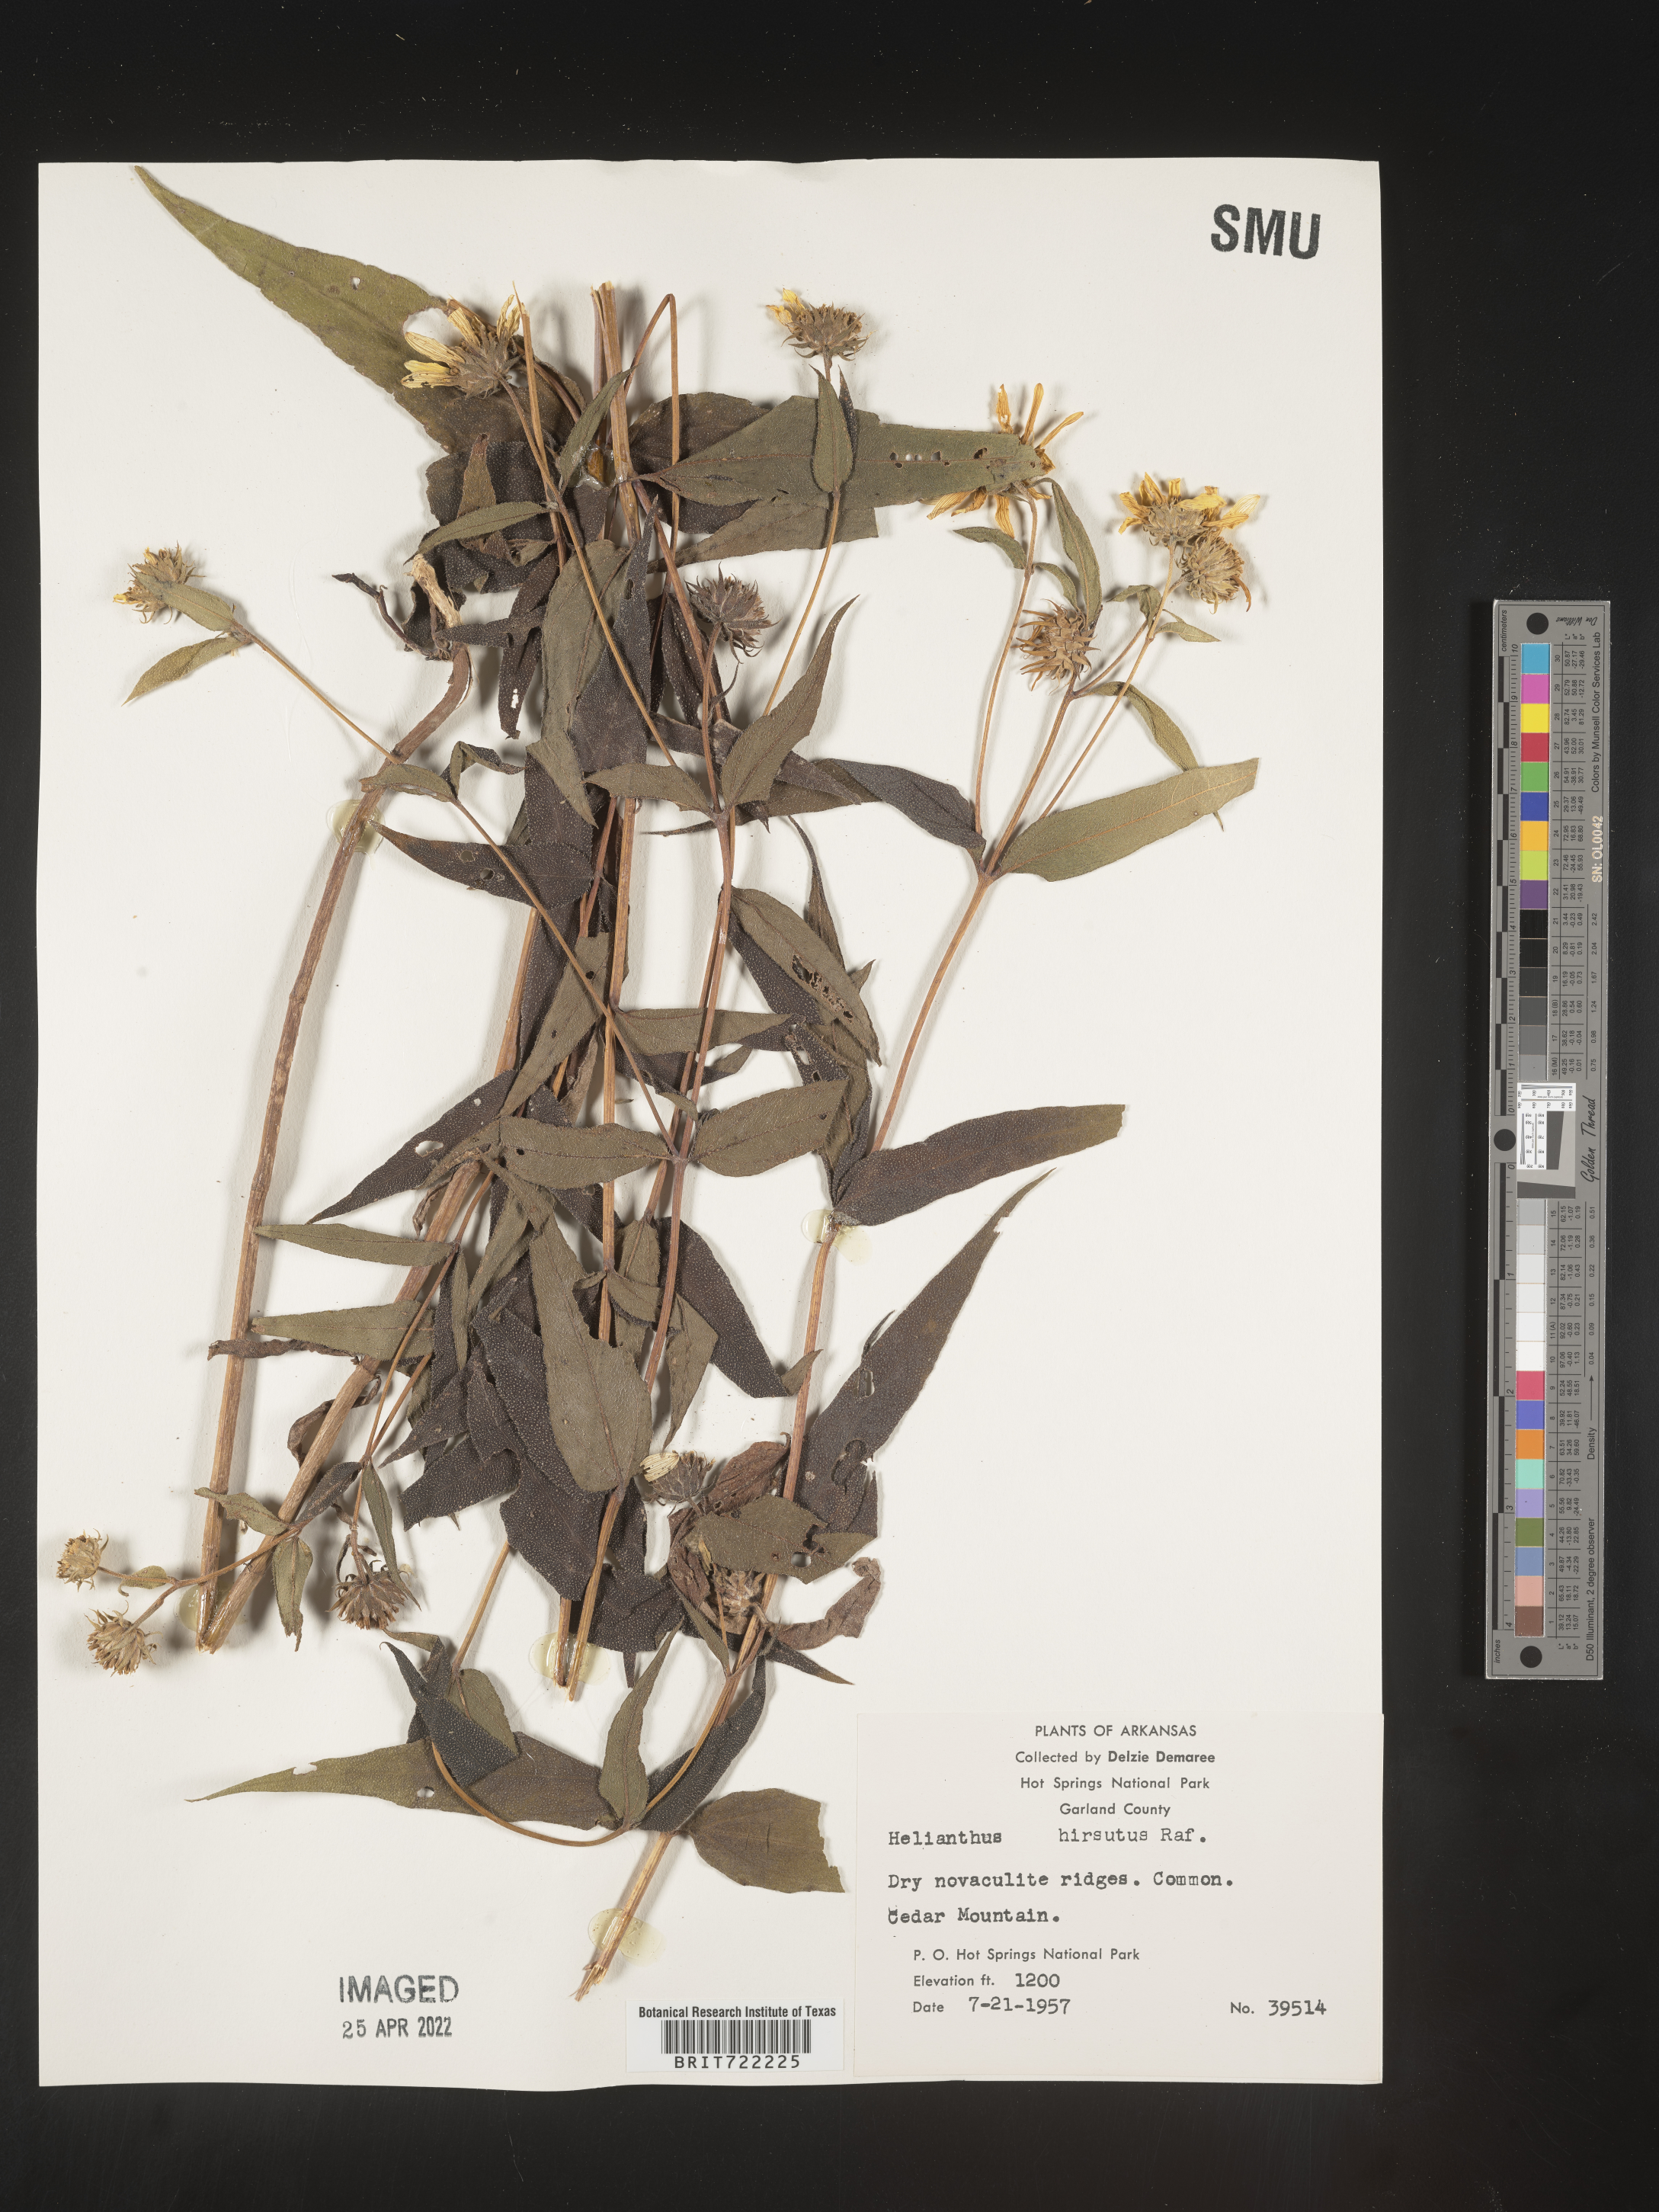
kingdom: Plantae
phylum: Tracheophyta
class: Magnoliopsida
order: Asterales
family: Asteraceae
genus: Helianthus
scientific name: Helianthus hirsutus
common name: Hairy sunflower
